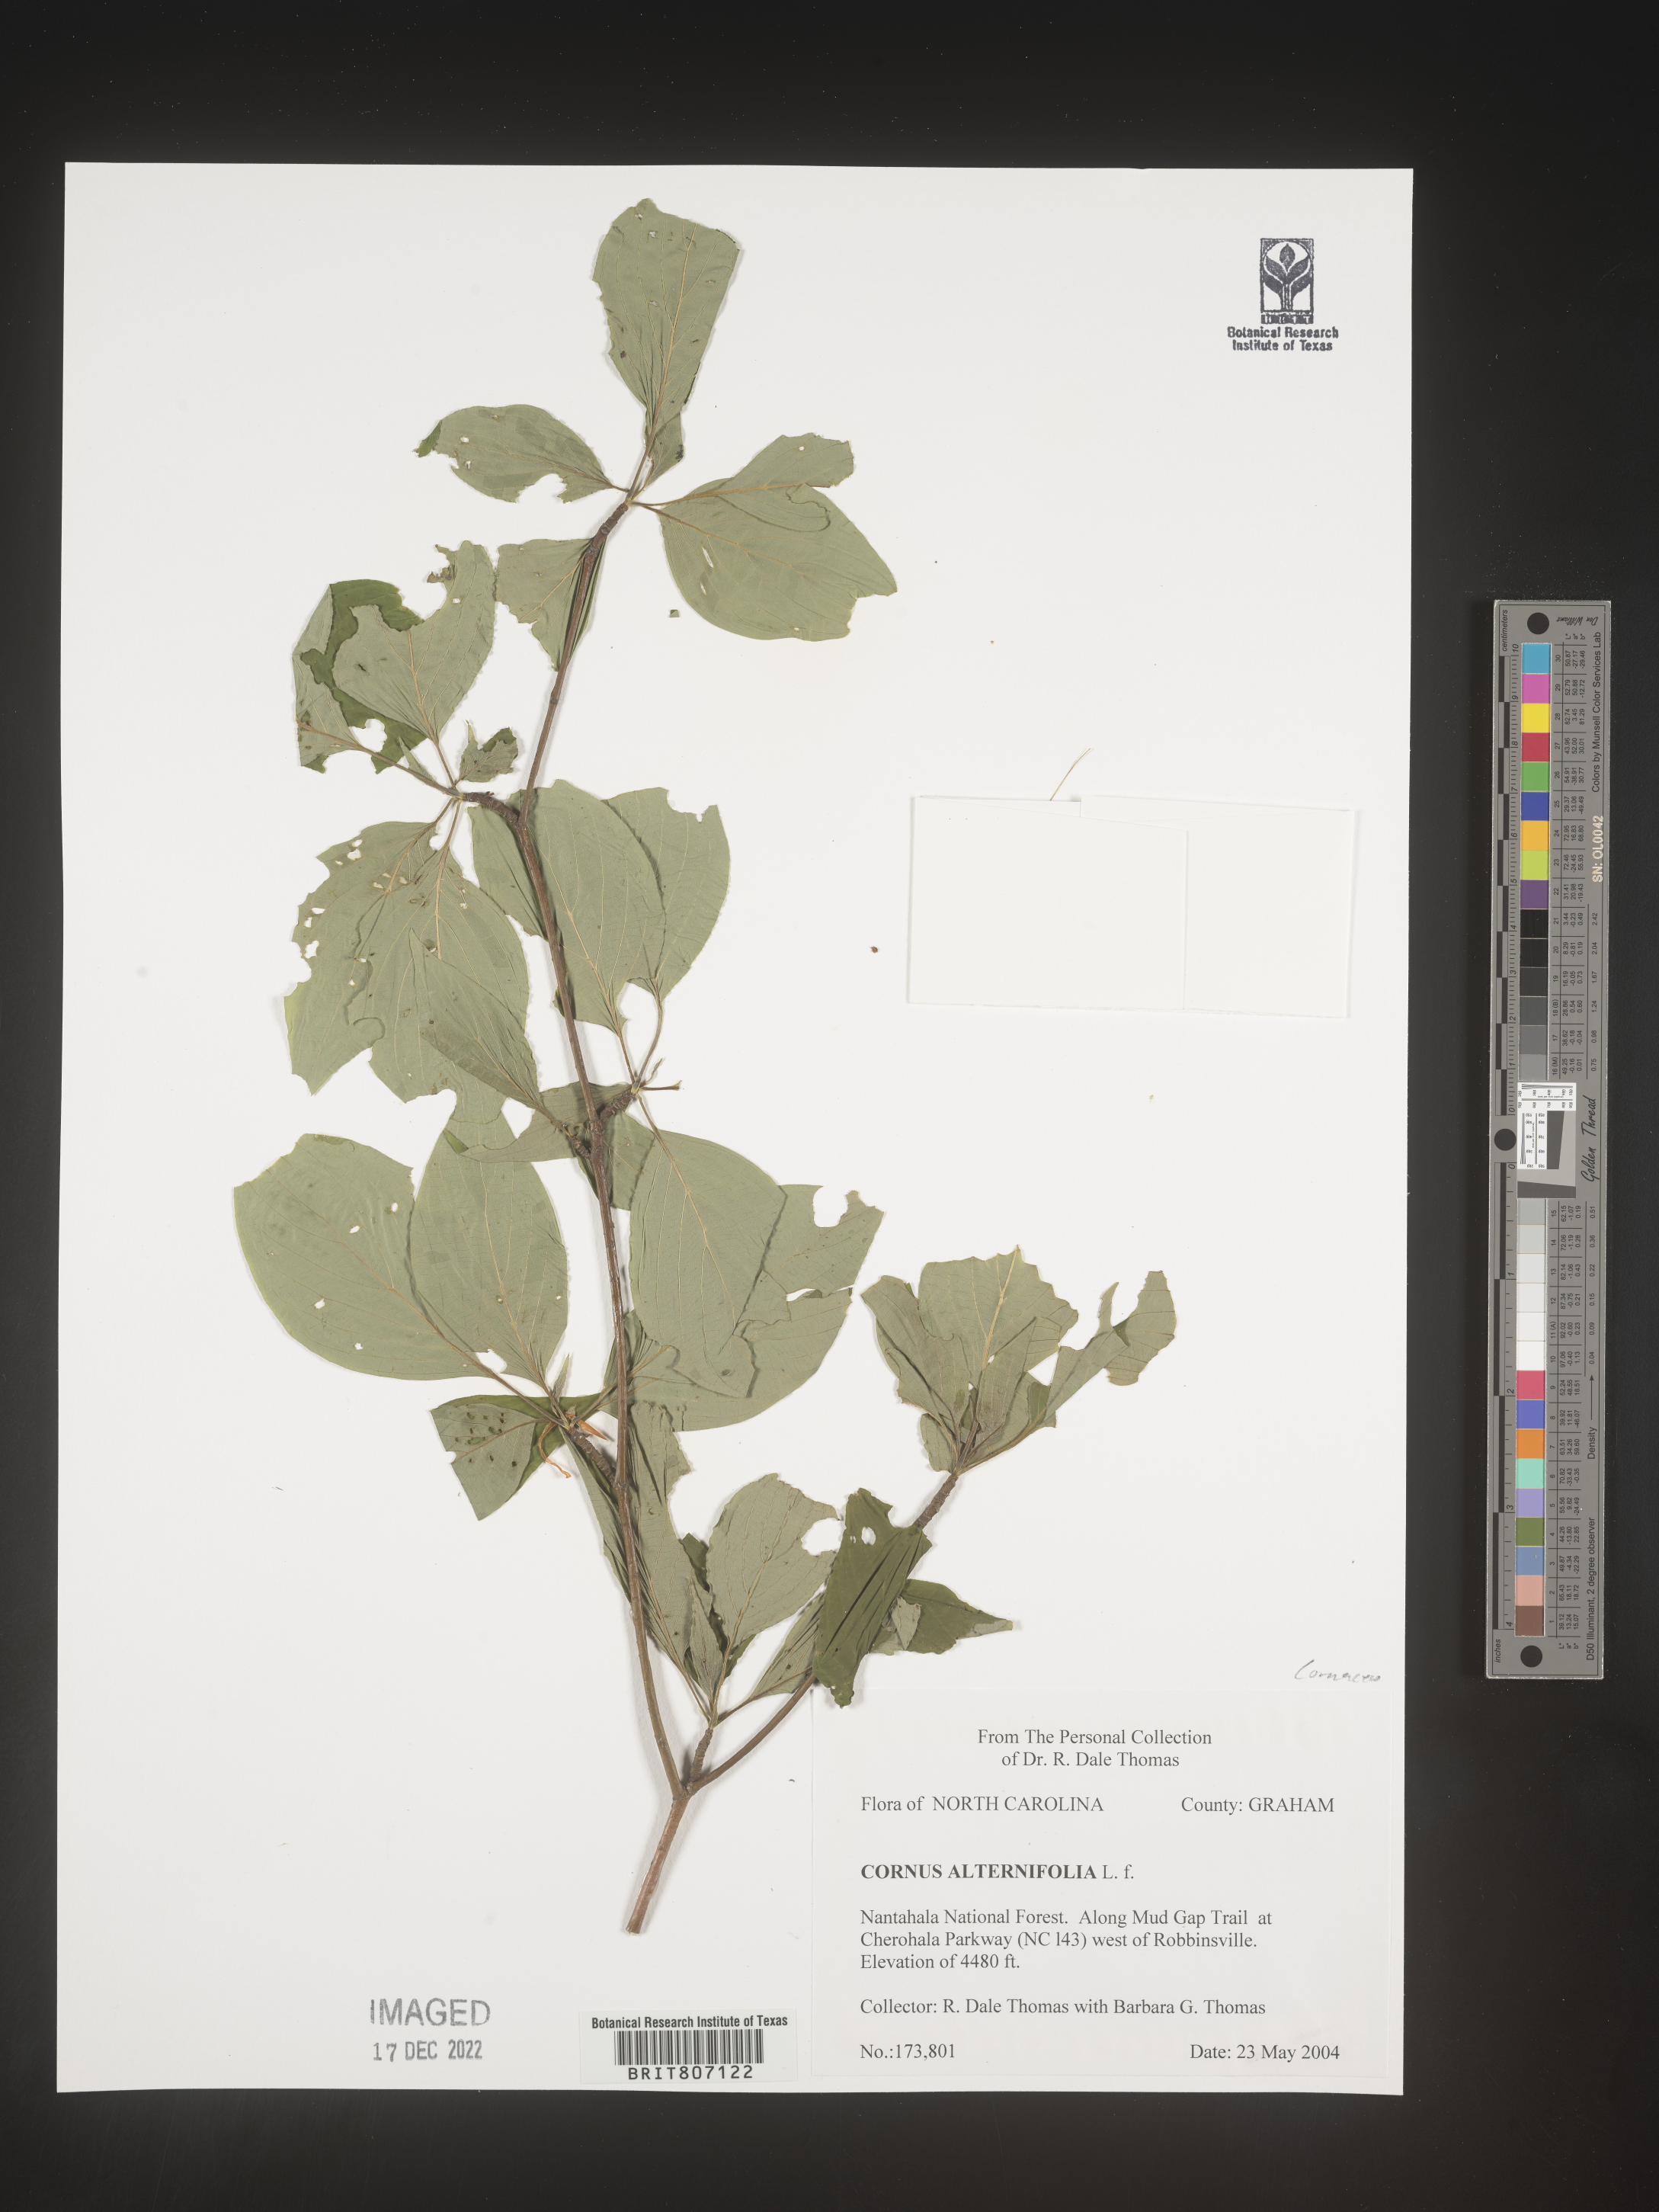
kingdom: Plantae
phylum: Tracheophyta
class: Magnoliopsida
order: Cornales
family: Cornaceae
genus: Cornus
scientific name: Cornus alternifolia
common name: Pagoda dogwood
